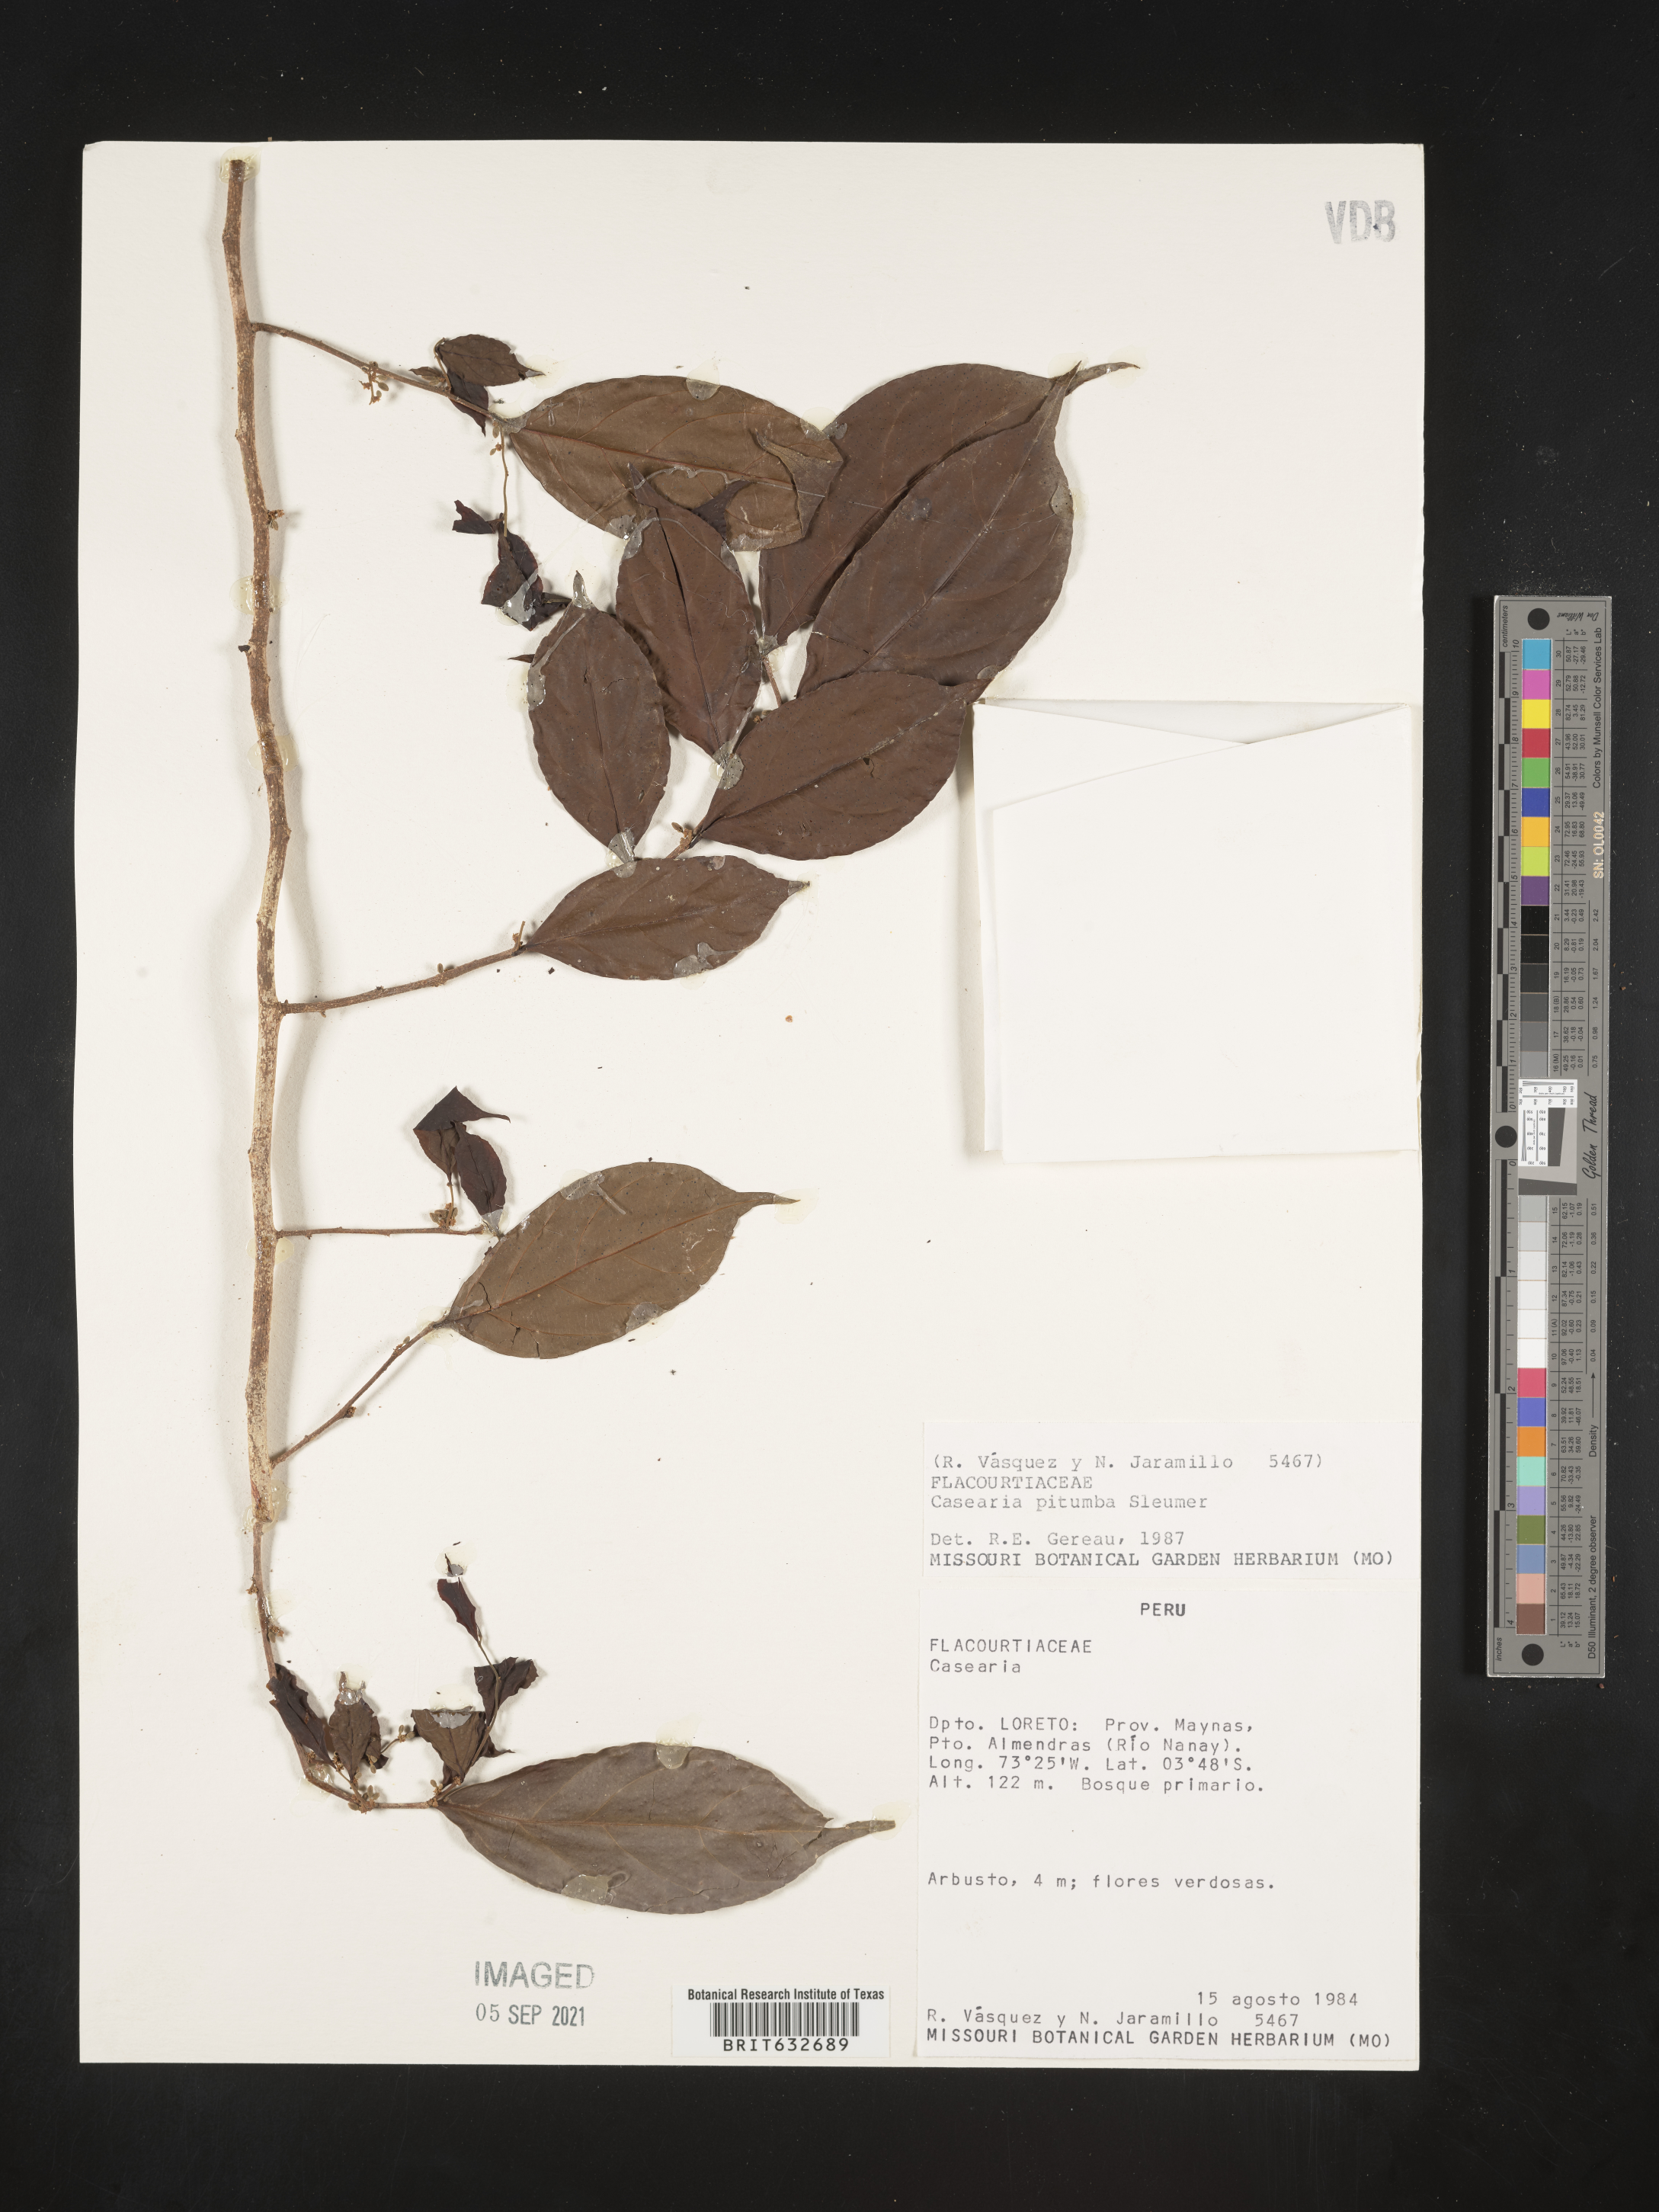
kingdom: Plantae
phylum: Tracheophyta
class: Magnoliopsida
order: Malpighiales
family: Salicaceae
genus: Casearia
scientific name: Casearia
